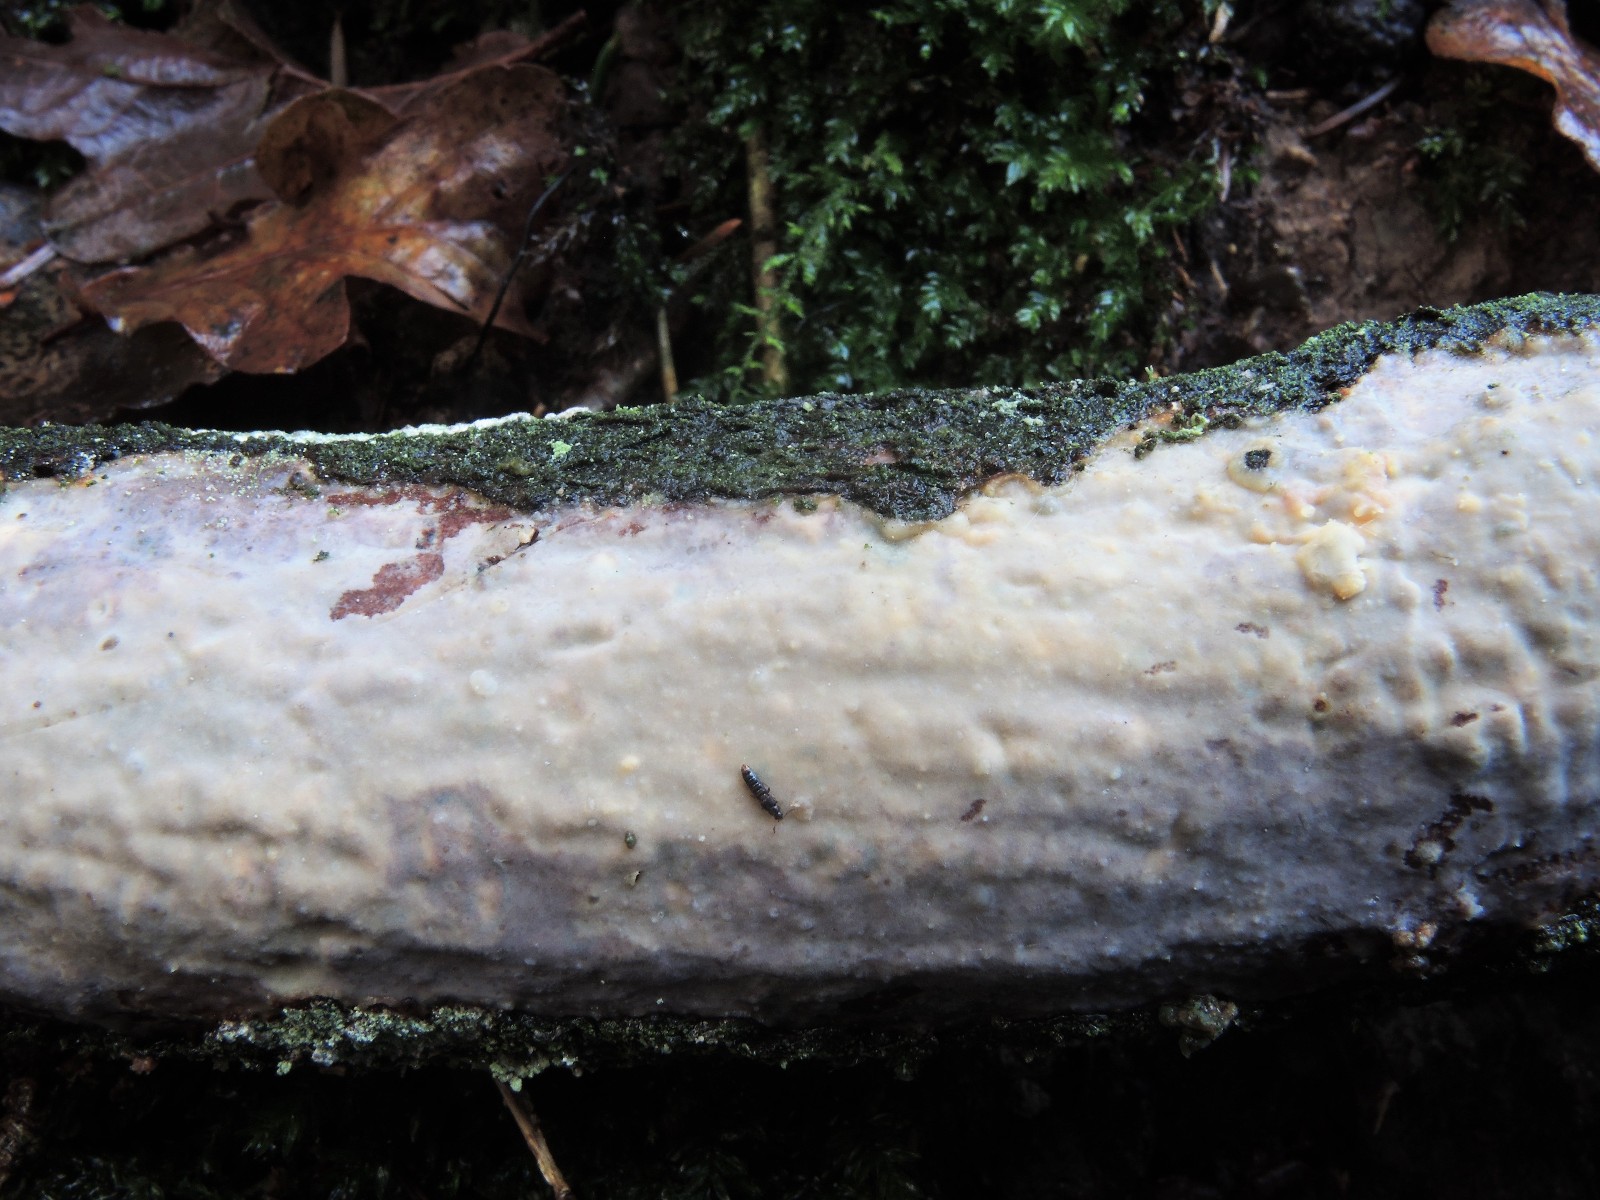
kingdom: Fungi
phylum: Basidiomycota
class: Agaricomycetes
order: Corticiales
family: Vuilleminiaceae
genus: Vuilleminia
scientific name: Vuilleminia comedens
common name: almindelig barksprænger
